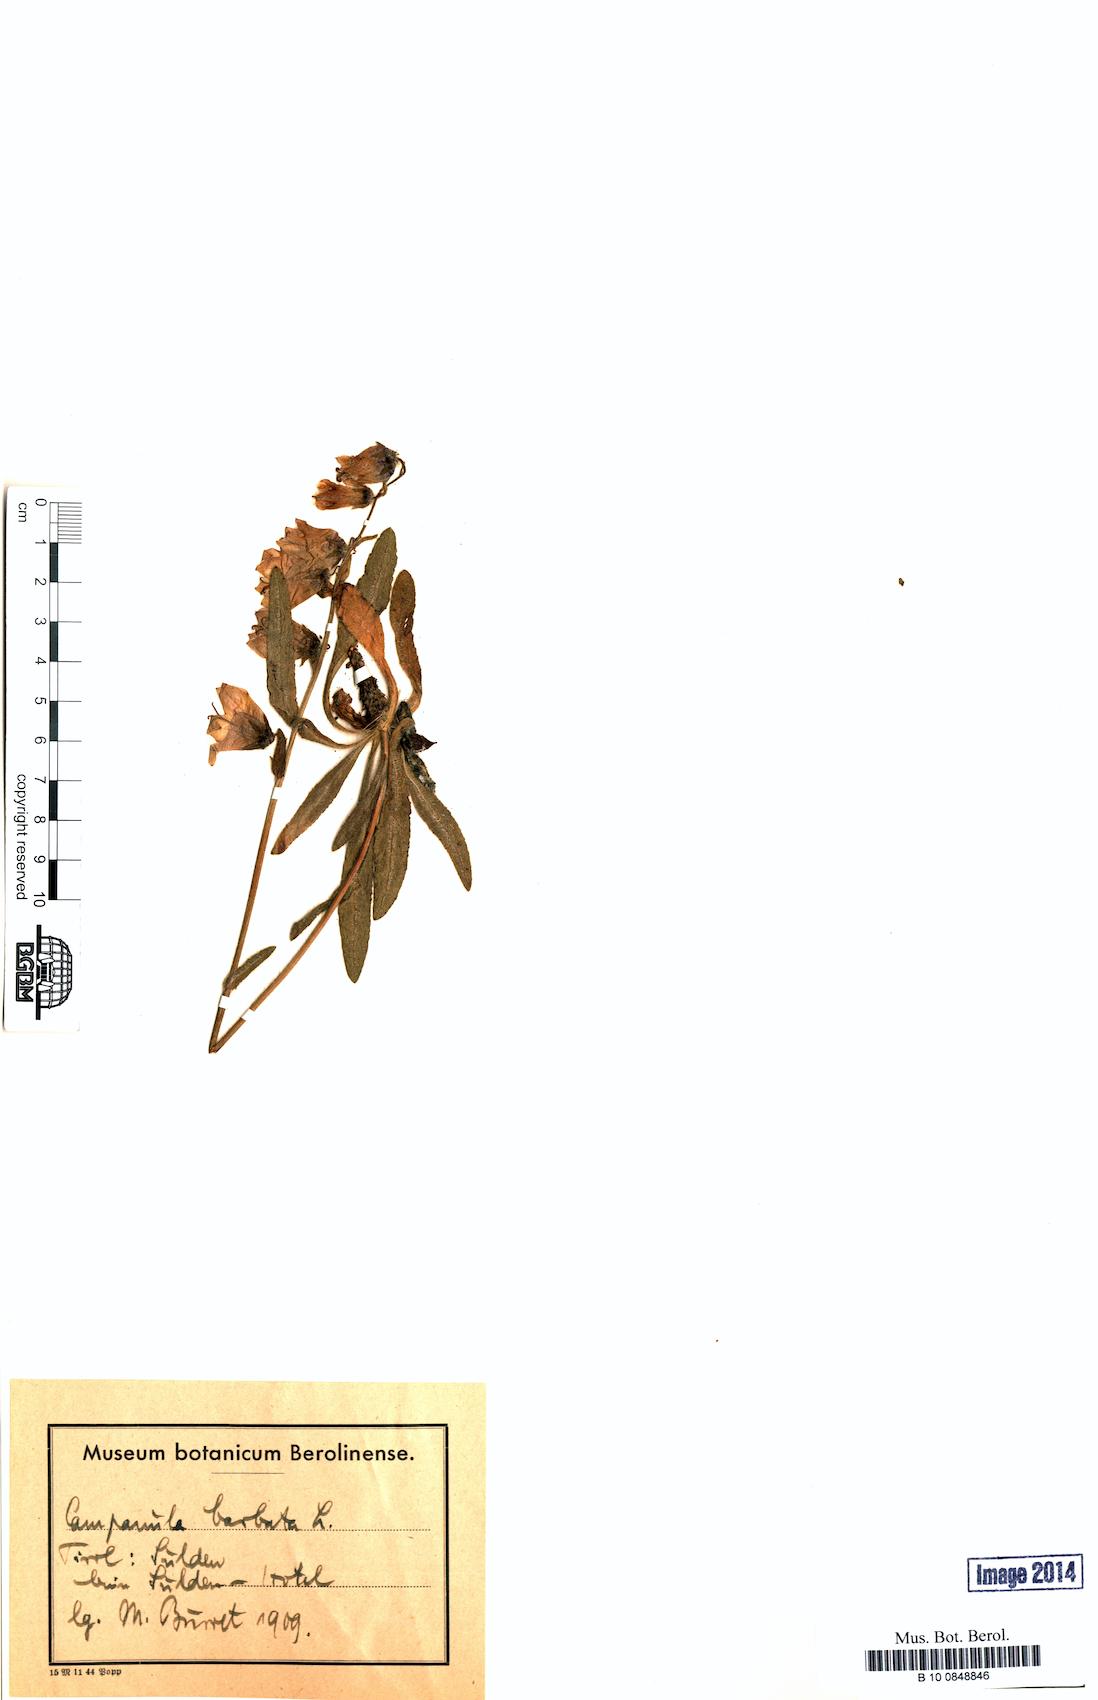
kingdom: Plantae
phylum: Tracheophyta
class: Magnoliopsida
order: Asterales
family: Campanulaceae
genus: Campanula
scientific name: Campanula barbata
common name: Bearded bellflower
